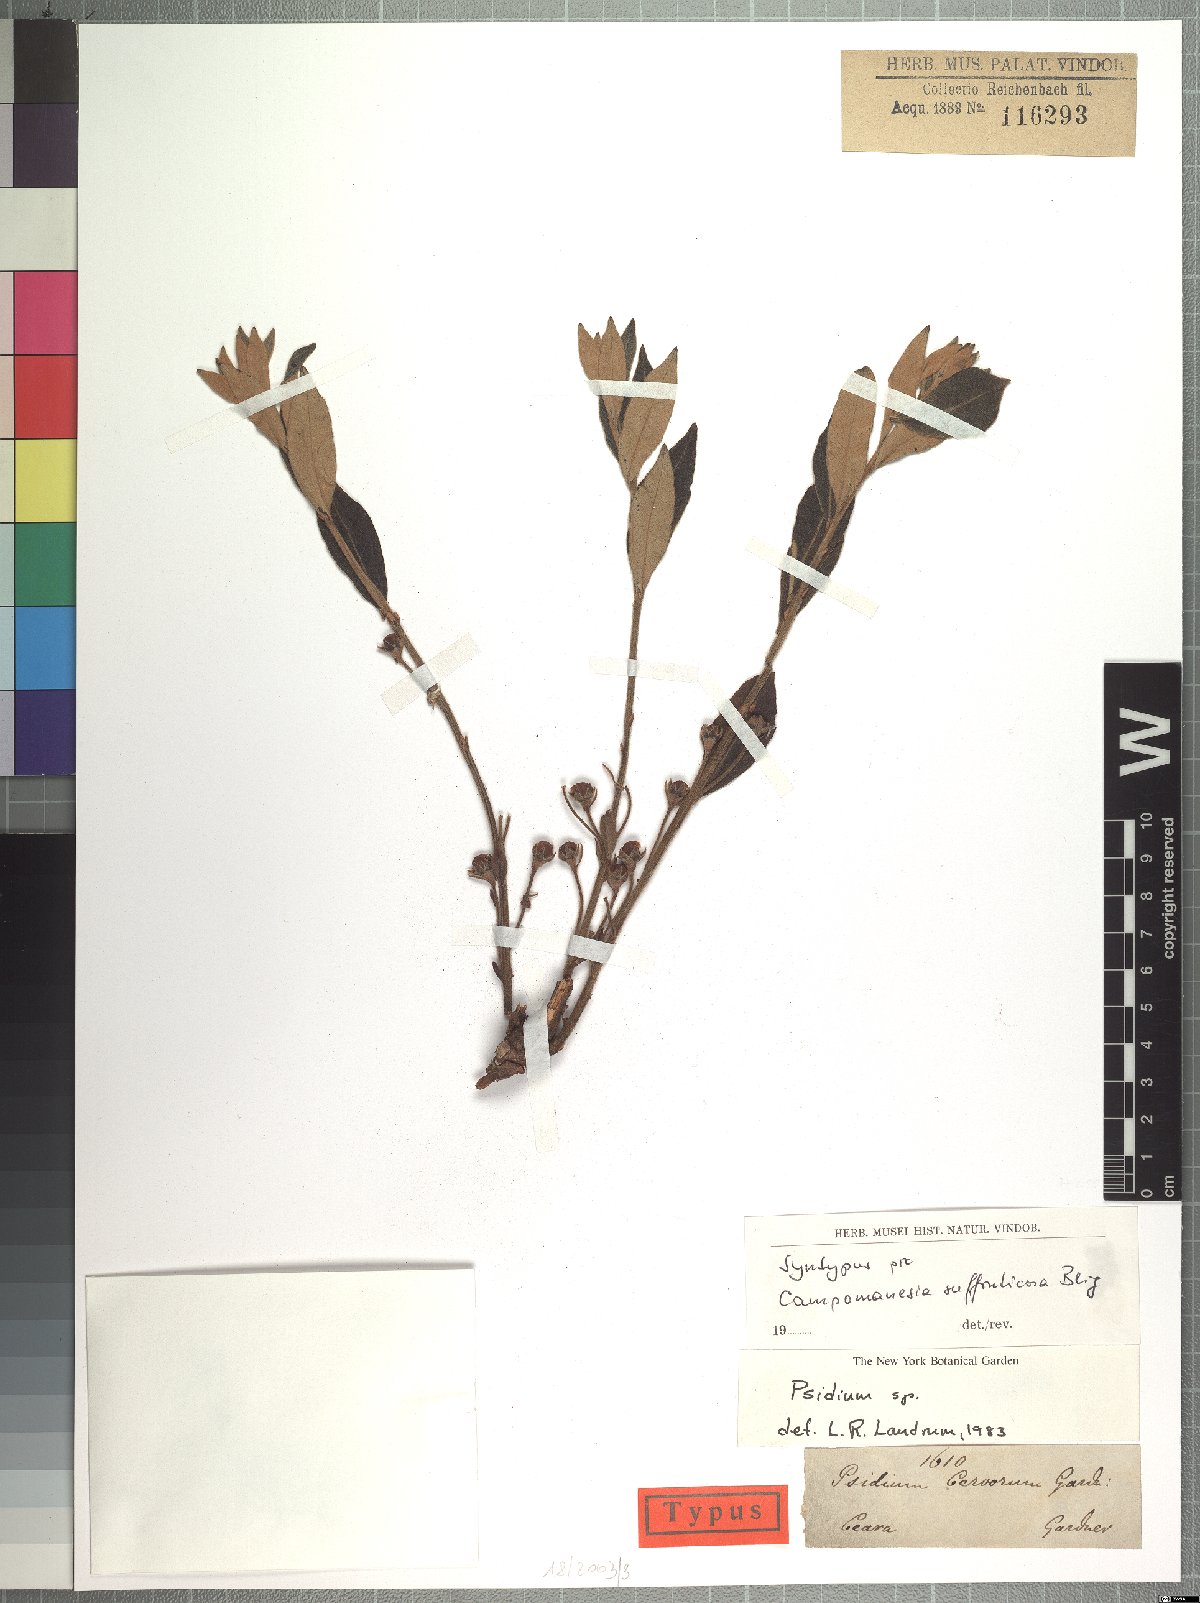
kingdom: Plantae
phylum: Tracheophyta
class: Magnoliopsida
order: Myrtales
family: Myrtaceae
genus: Psidium
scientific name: Psidium larueotteanum
